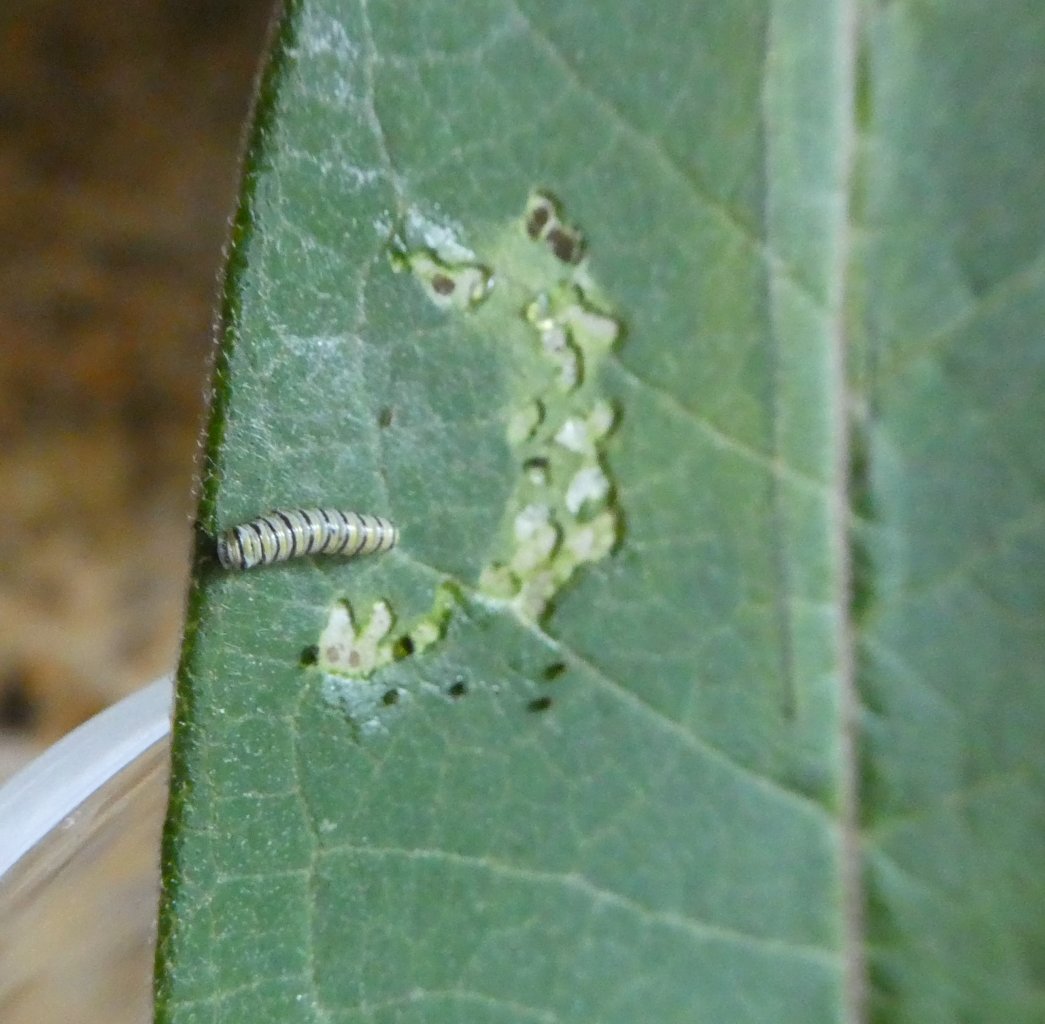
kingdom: Animalia
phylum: Arthropoda
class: Insecta
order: Lepidoptera
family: Nymphalidae
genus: Danaus
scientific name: Danaus plexippus
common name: Monarch
